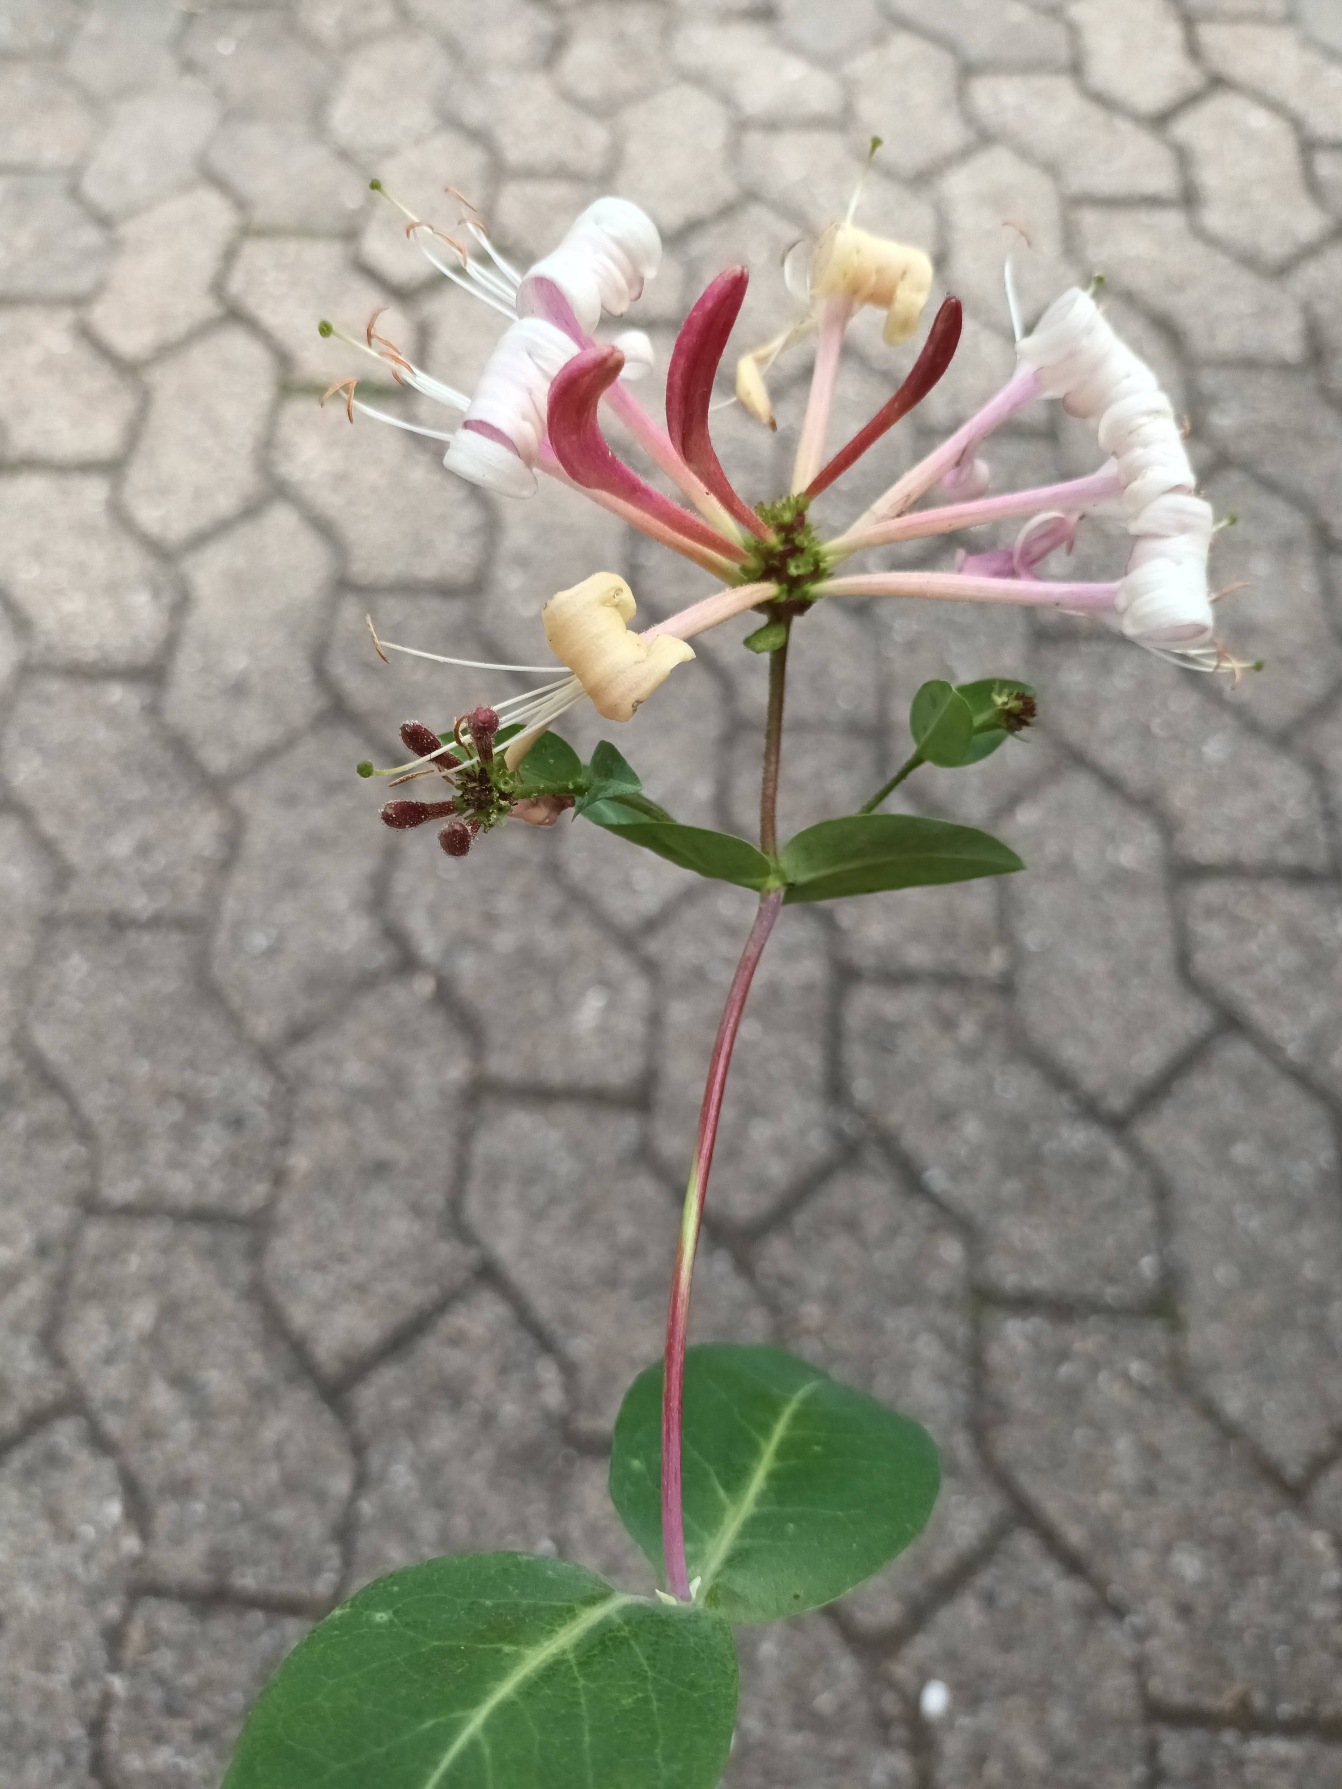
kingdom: Plantae
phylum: Tracheophyta
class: Magnoliopsida
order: Dipsacales
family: Caprifoliaceae
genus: Lonicera
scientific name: Lonicera periclymenum
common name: Almindelig gedeblad
